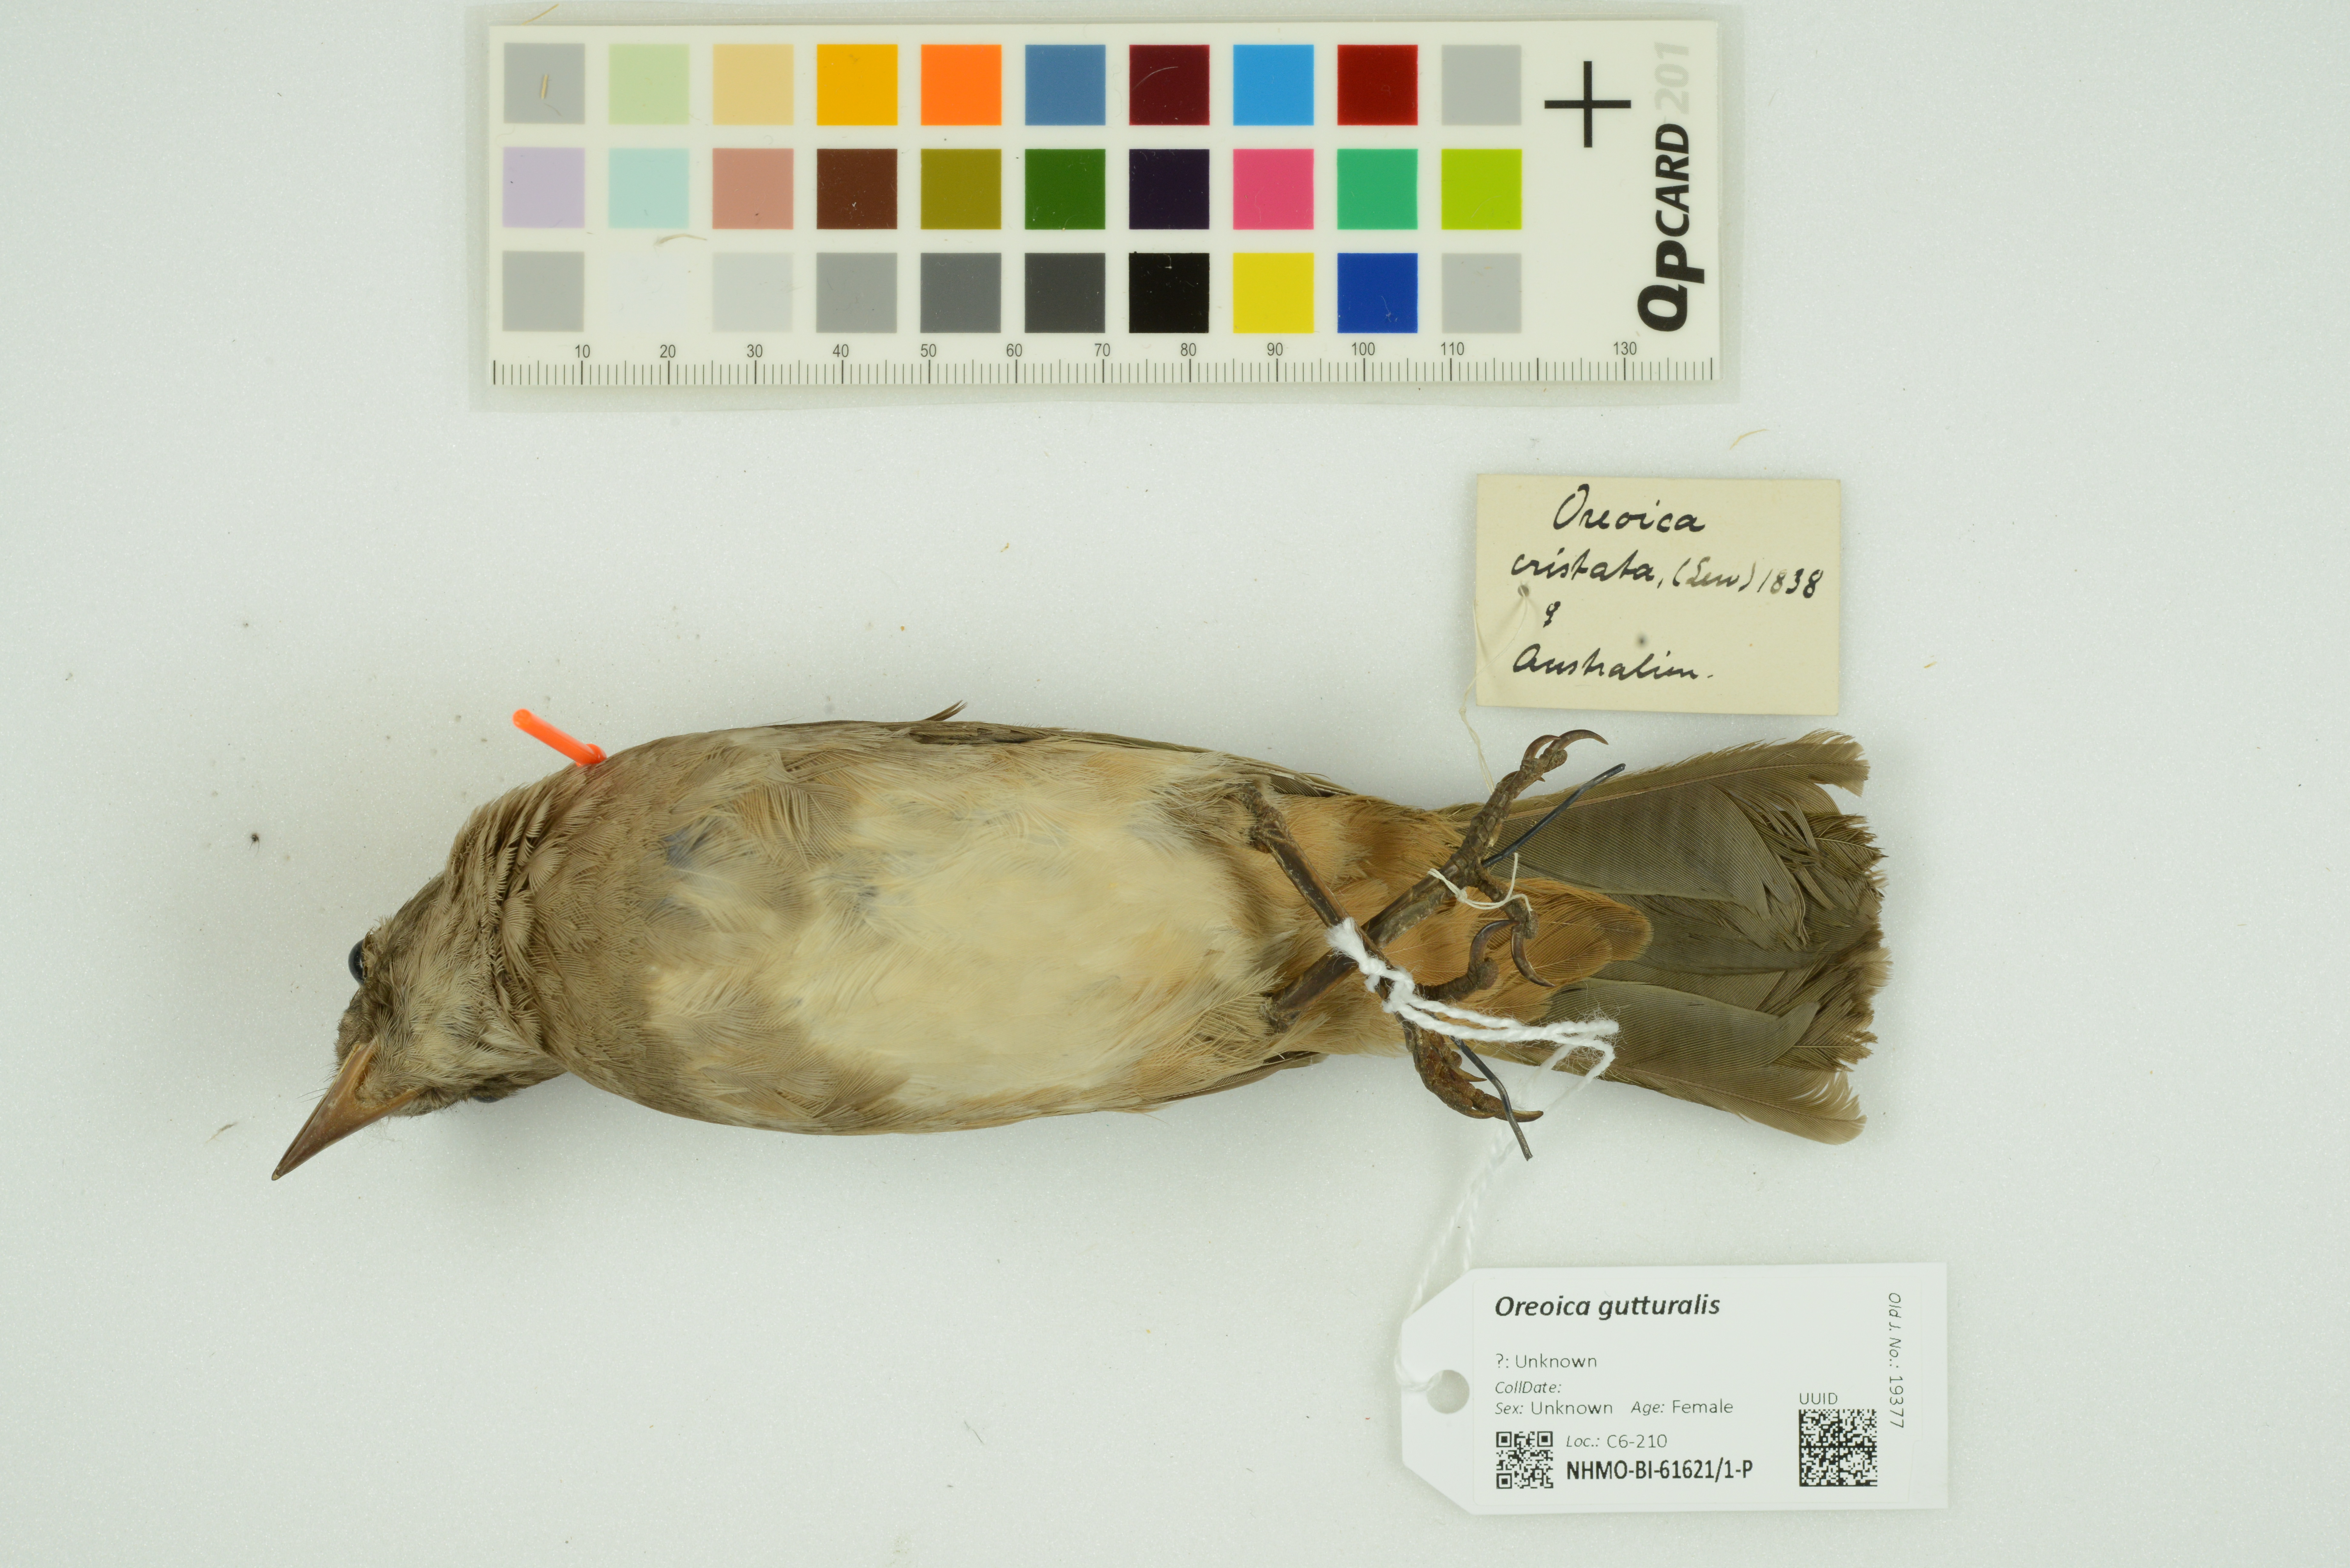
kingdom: Animalia
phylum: Chordata
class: Aves
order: Passeriformes
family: Oreoicidae
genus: Oreoica
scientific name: Oreoica gutturalis
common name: Crested bellbird
